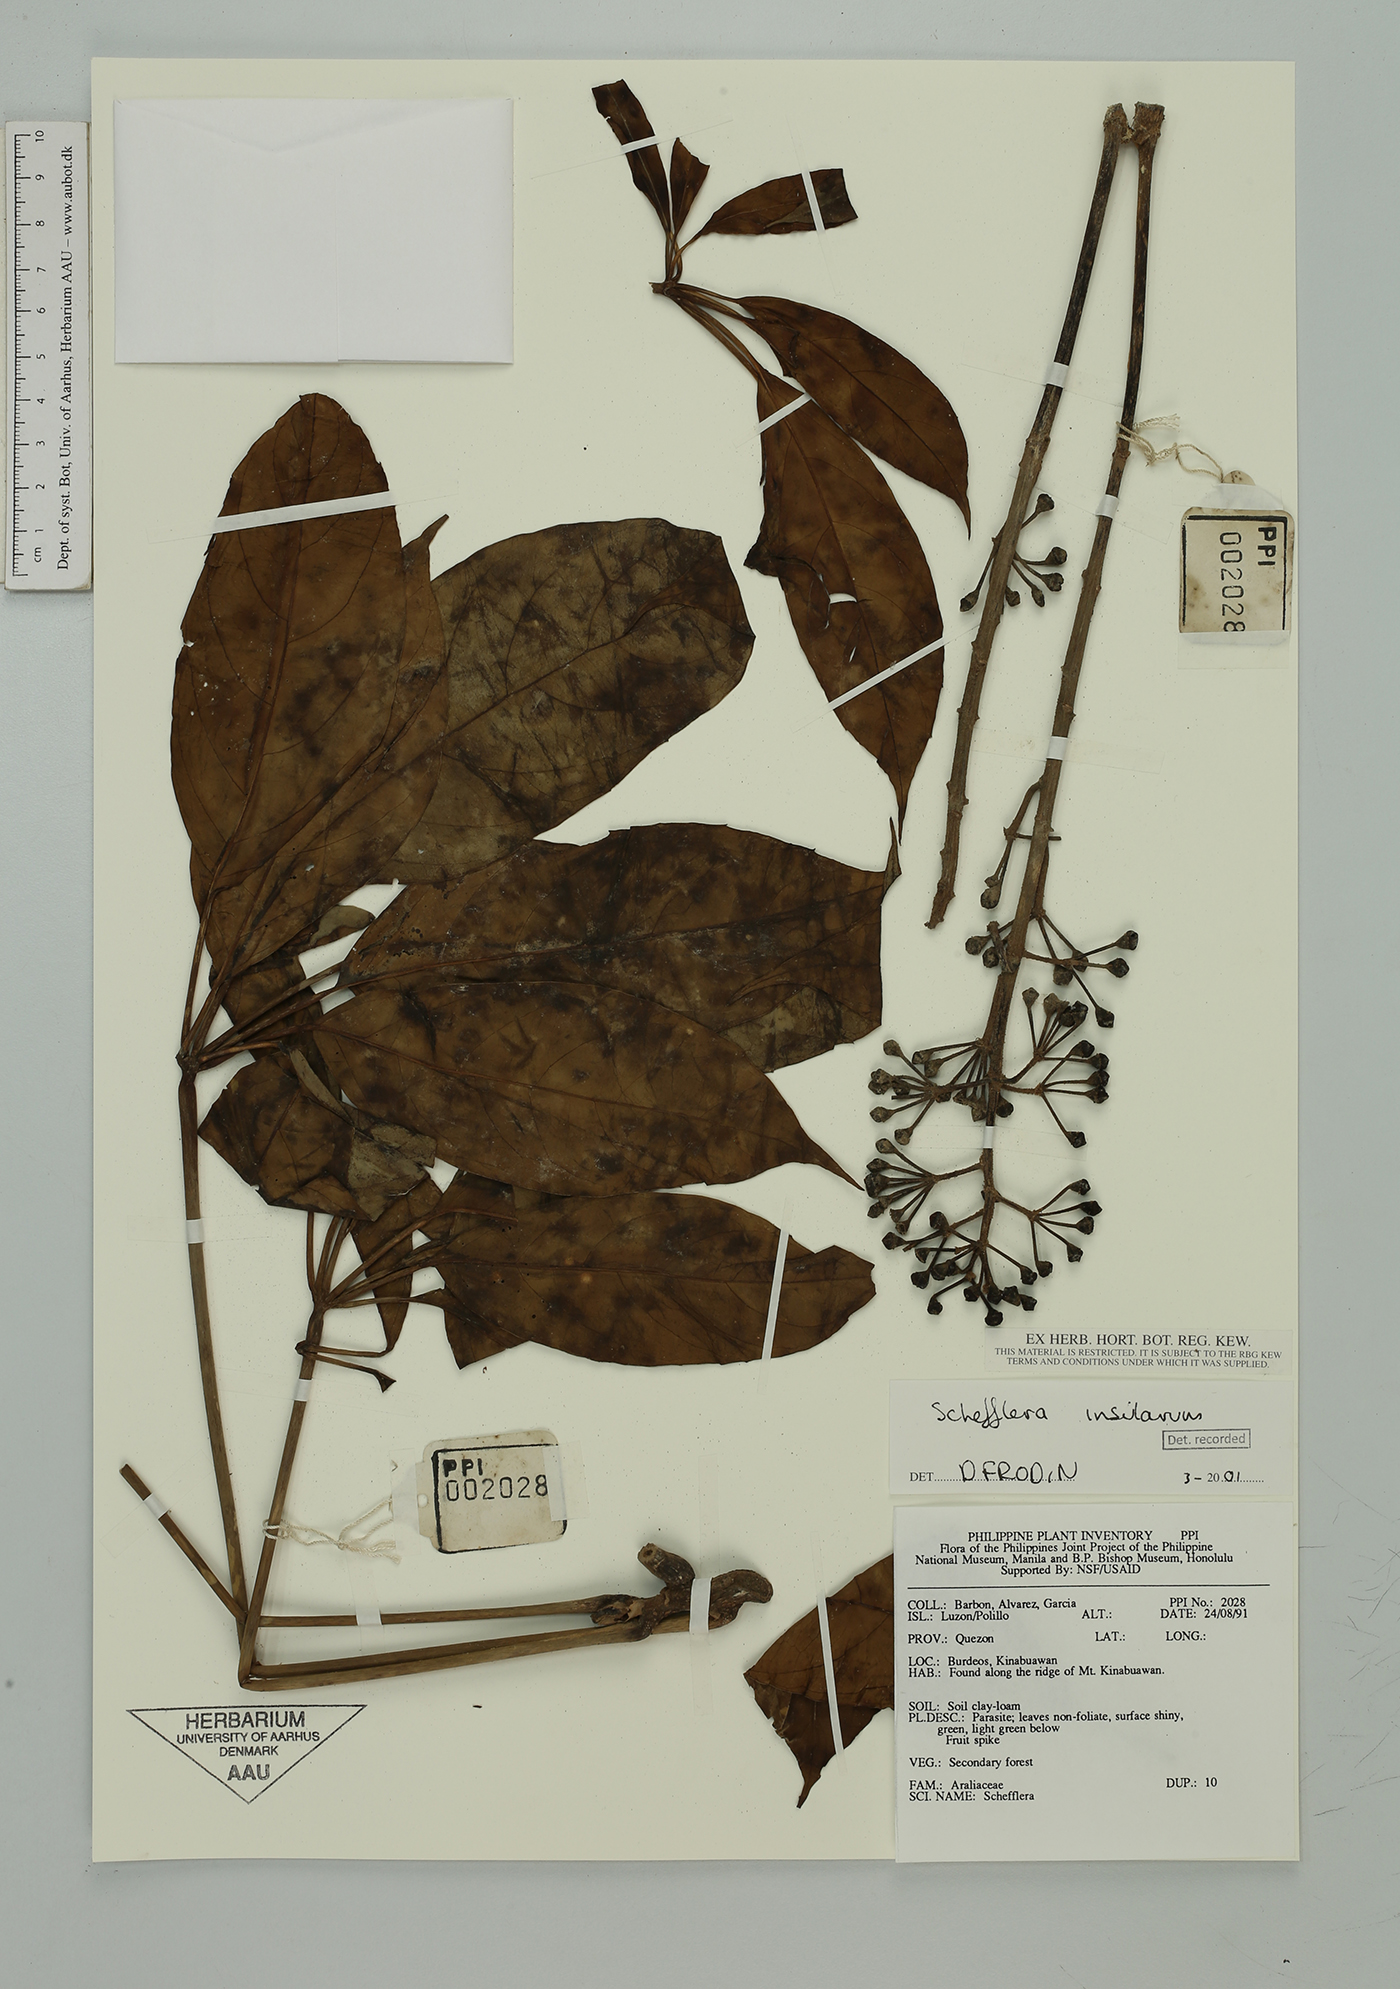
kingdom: Plantae
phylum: Tracheophyta
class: Magnoliopsida
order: Apiales
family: Araliaceae
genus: Heptapleurum
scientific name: Heptapleurum insularum
